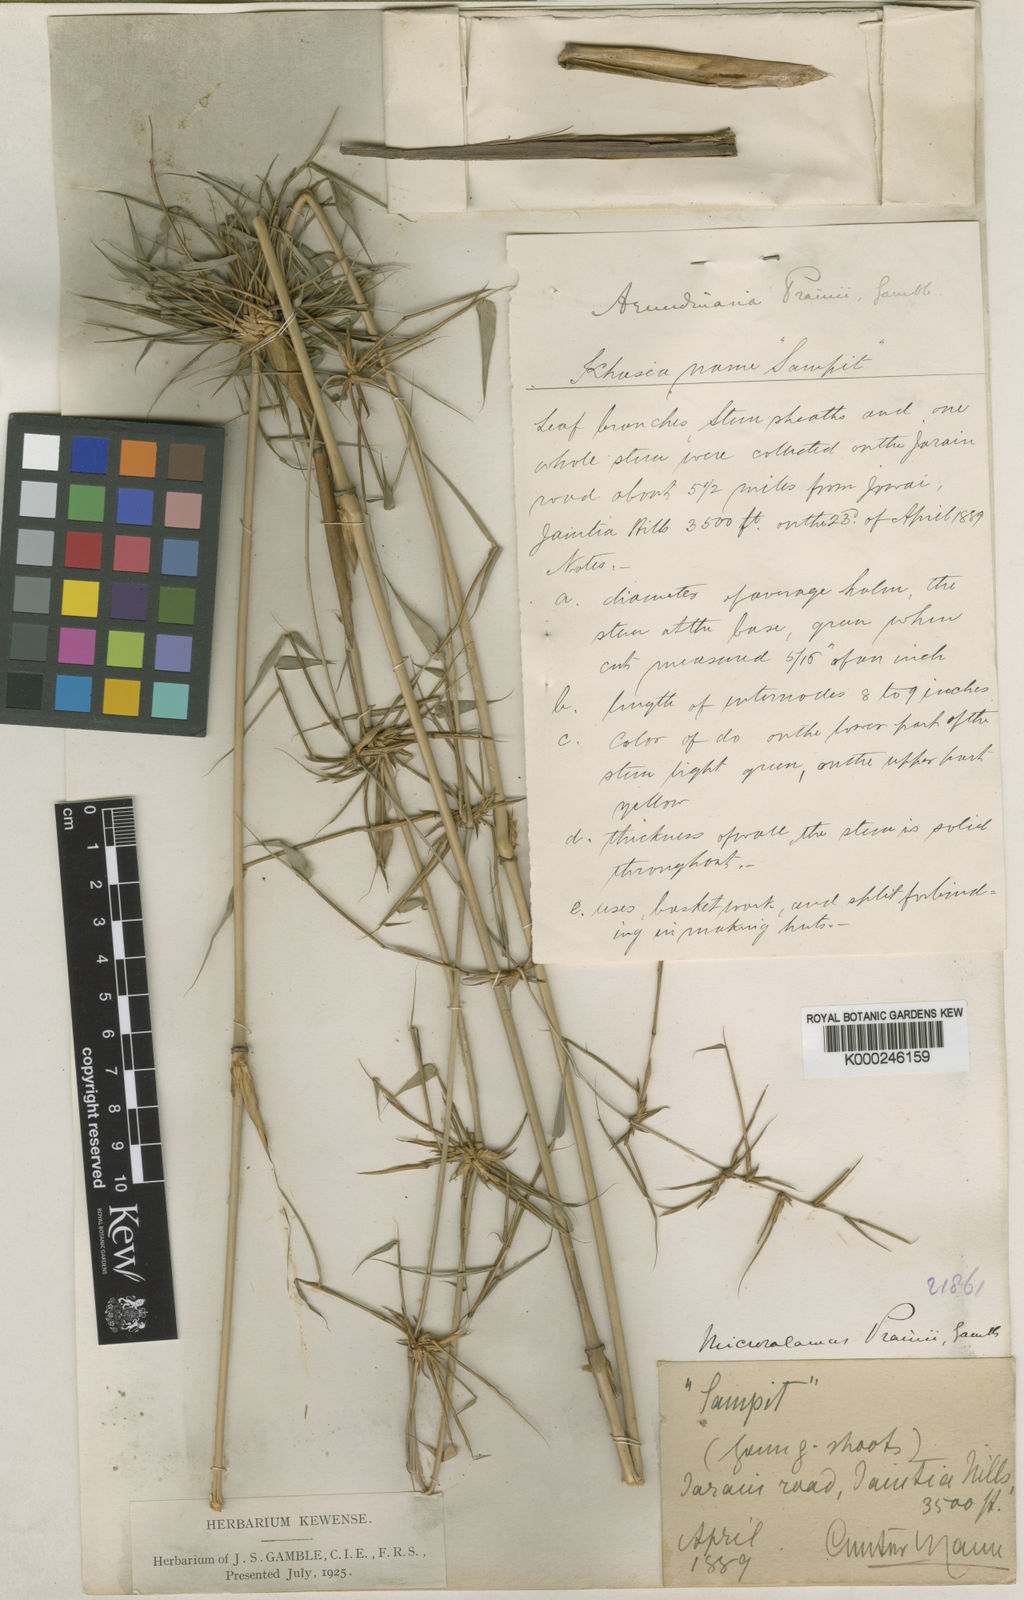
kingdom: Plantae
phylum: Tracheophyta
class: Liliopsida
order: Poales
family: Poaceae
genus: Neomicrocalamus
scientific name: Neomicrocalamus prainii
